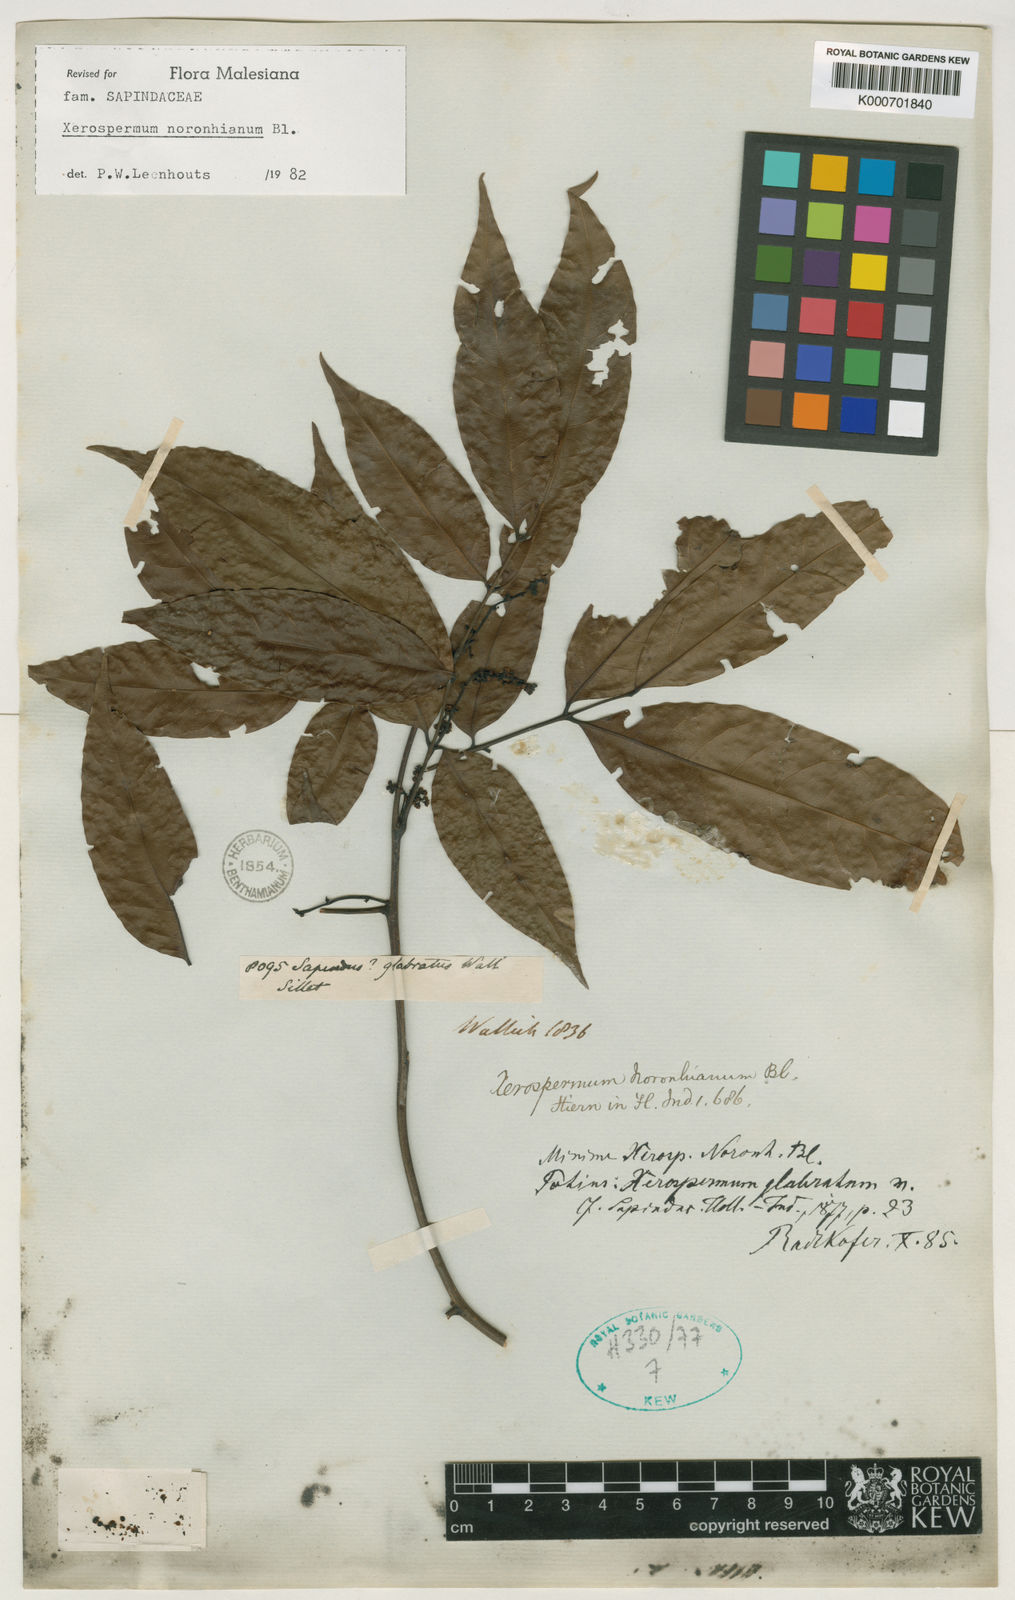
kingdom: Plantae
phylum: Tracheophyta
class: Magnoliopsida
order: Sapindales
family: Sapindaceae
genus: Xerospermum
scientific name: Xerospermum noronhianum
